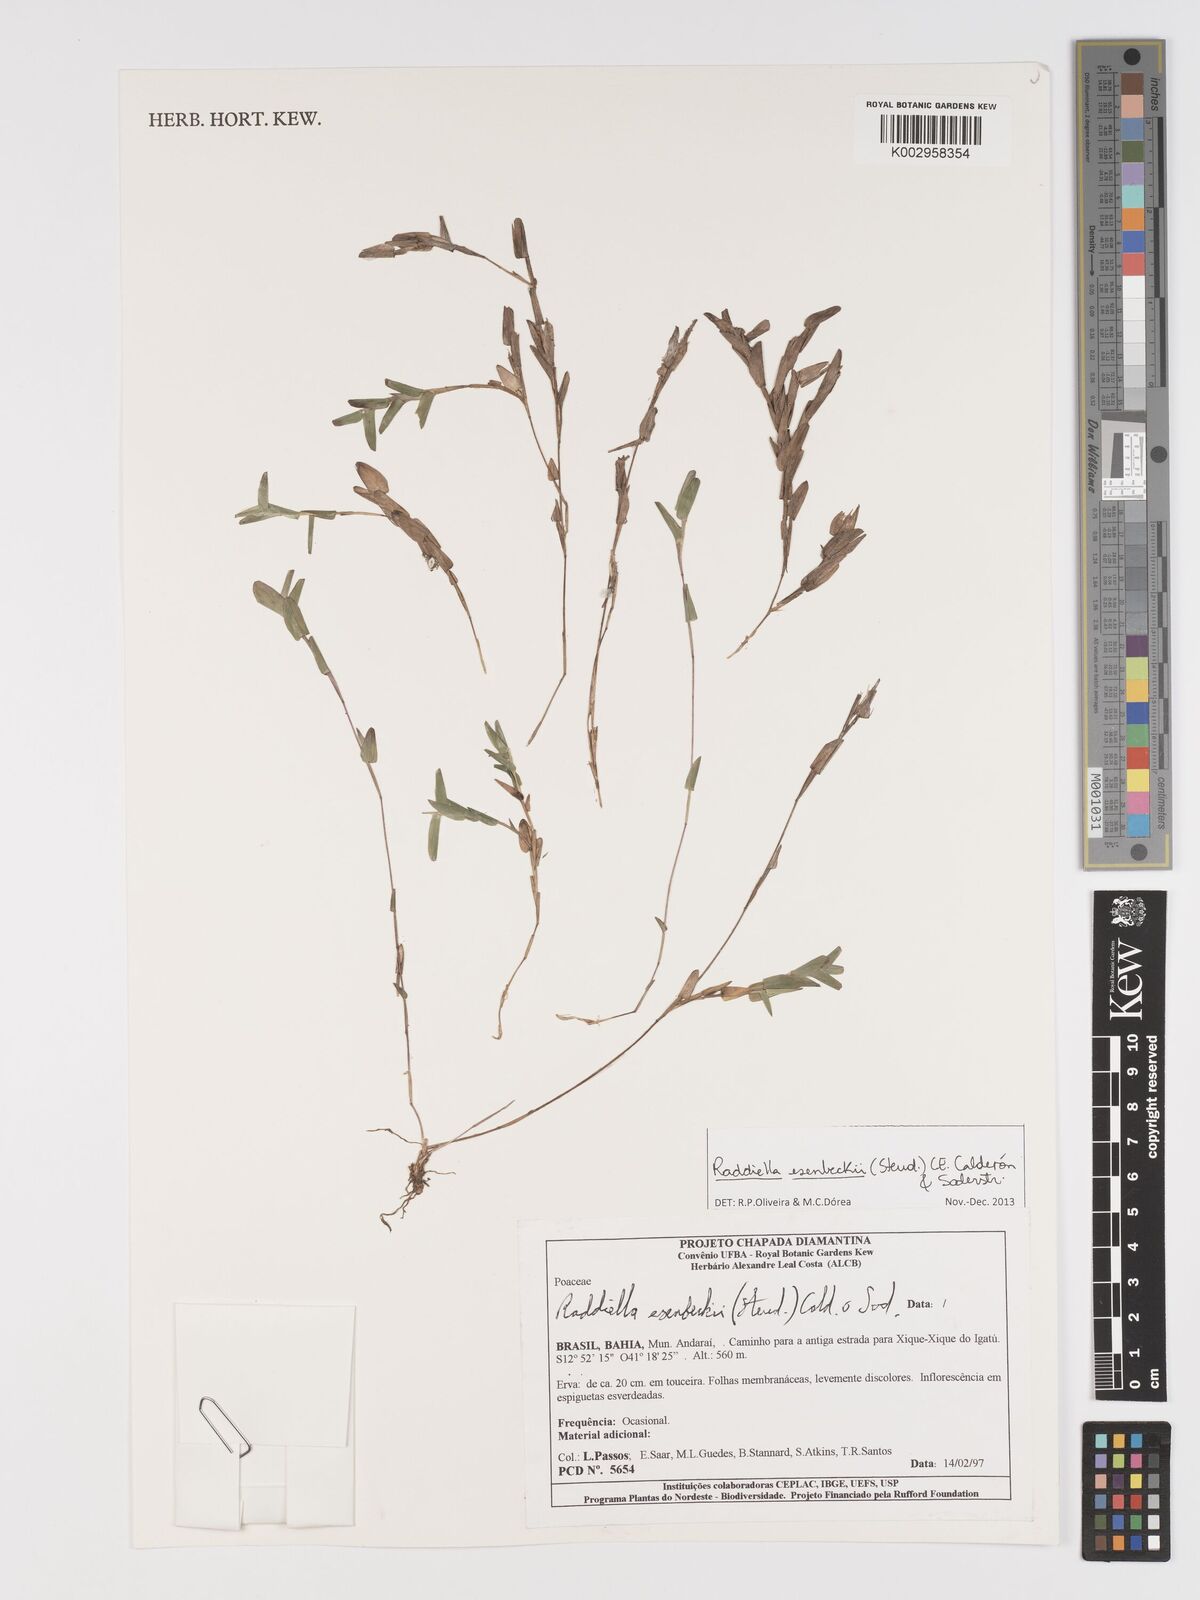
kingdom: Plantae
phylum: Tracheophyta
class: Liliopsida
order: Poales
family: Poaceae
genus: Raddiella
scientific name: Raddiella esenbeckii
